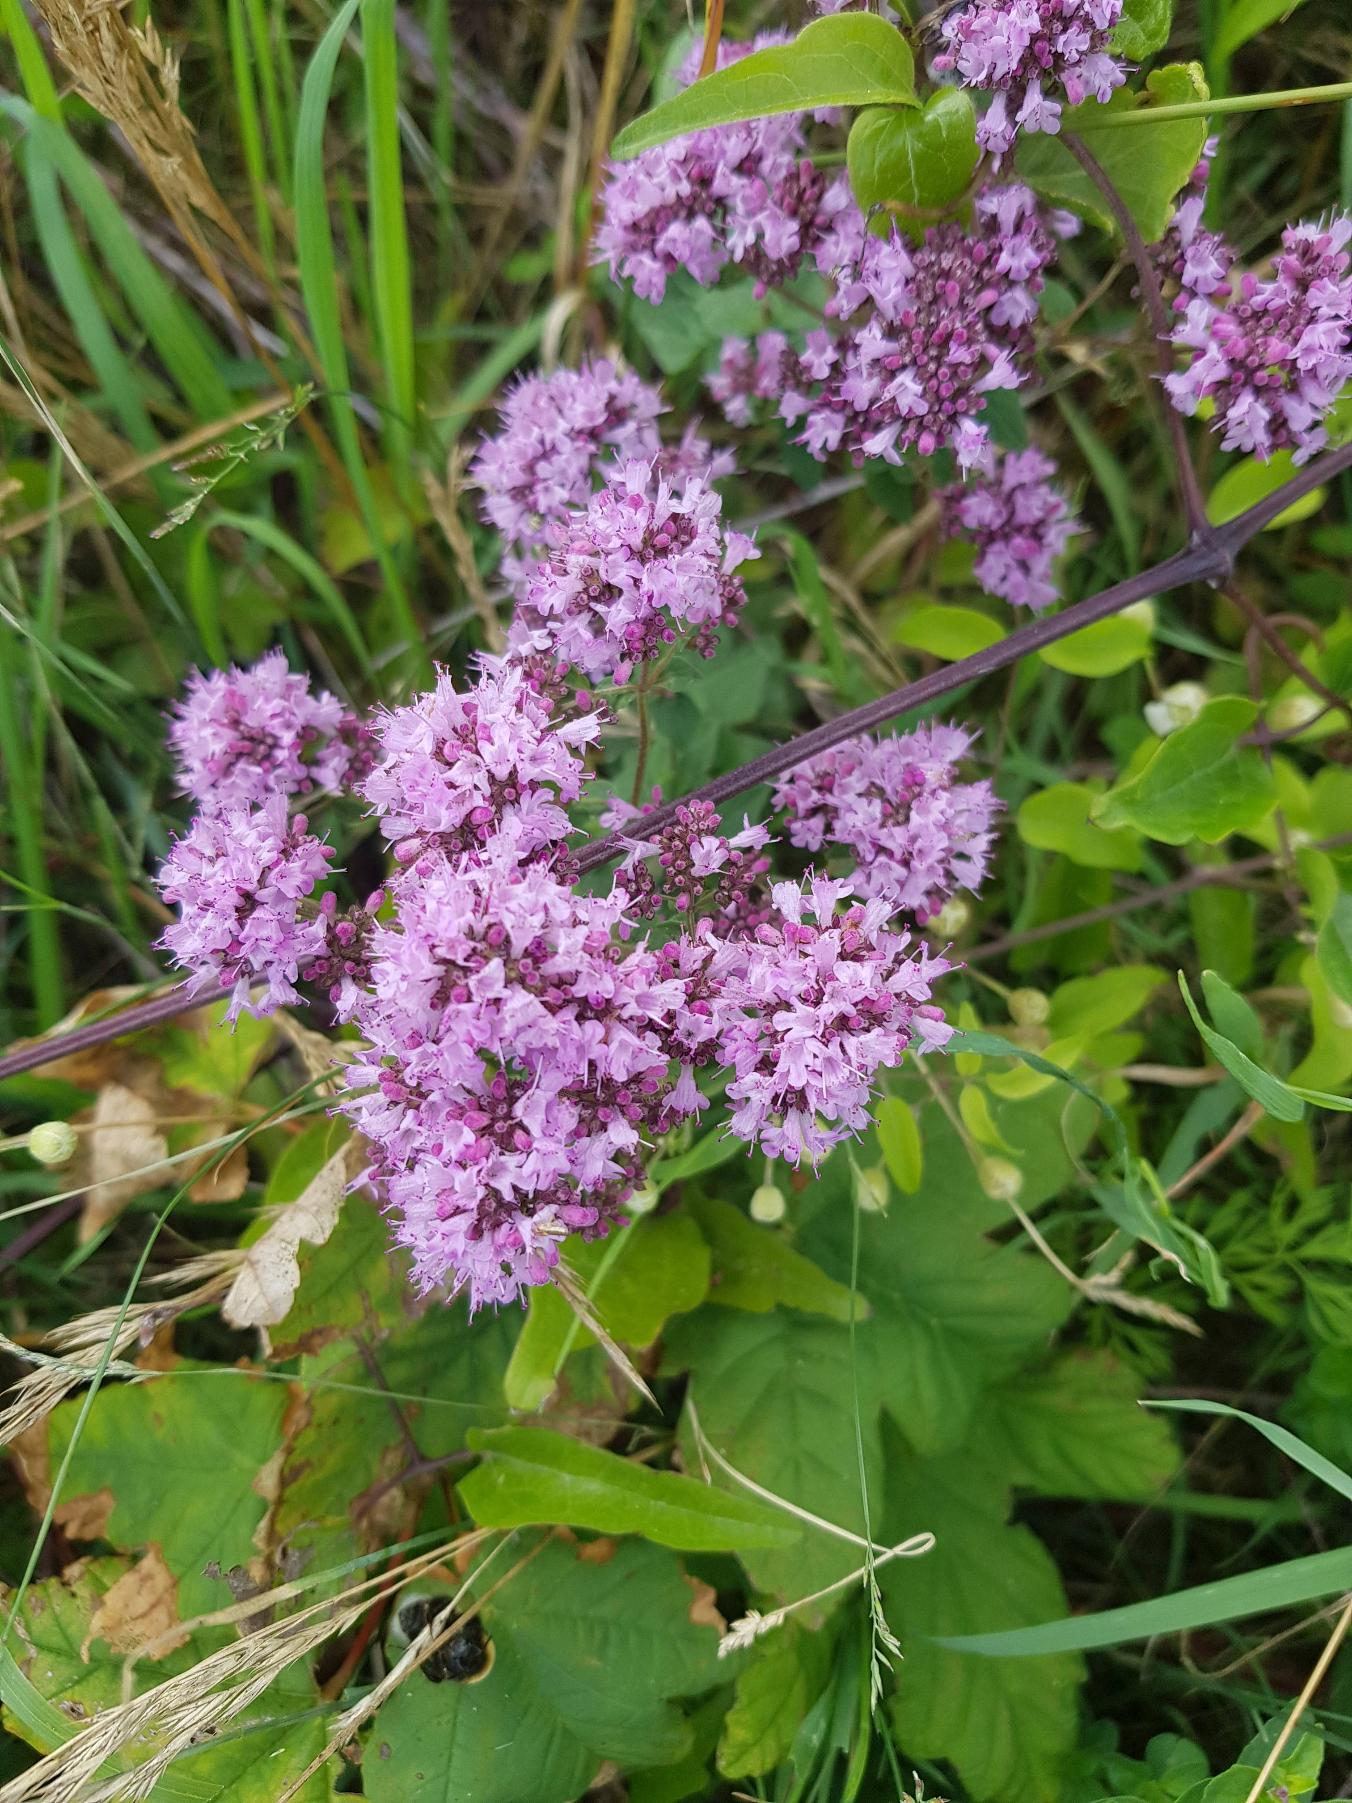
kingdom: Plantae
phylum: Tracheophyta
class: Magnoliopsida
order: Lamiales
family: Lamiaceae
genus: Origanum
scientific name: Origanum vulgare
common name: Merian
